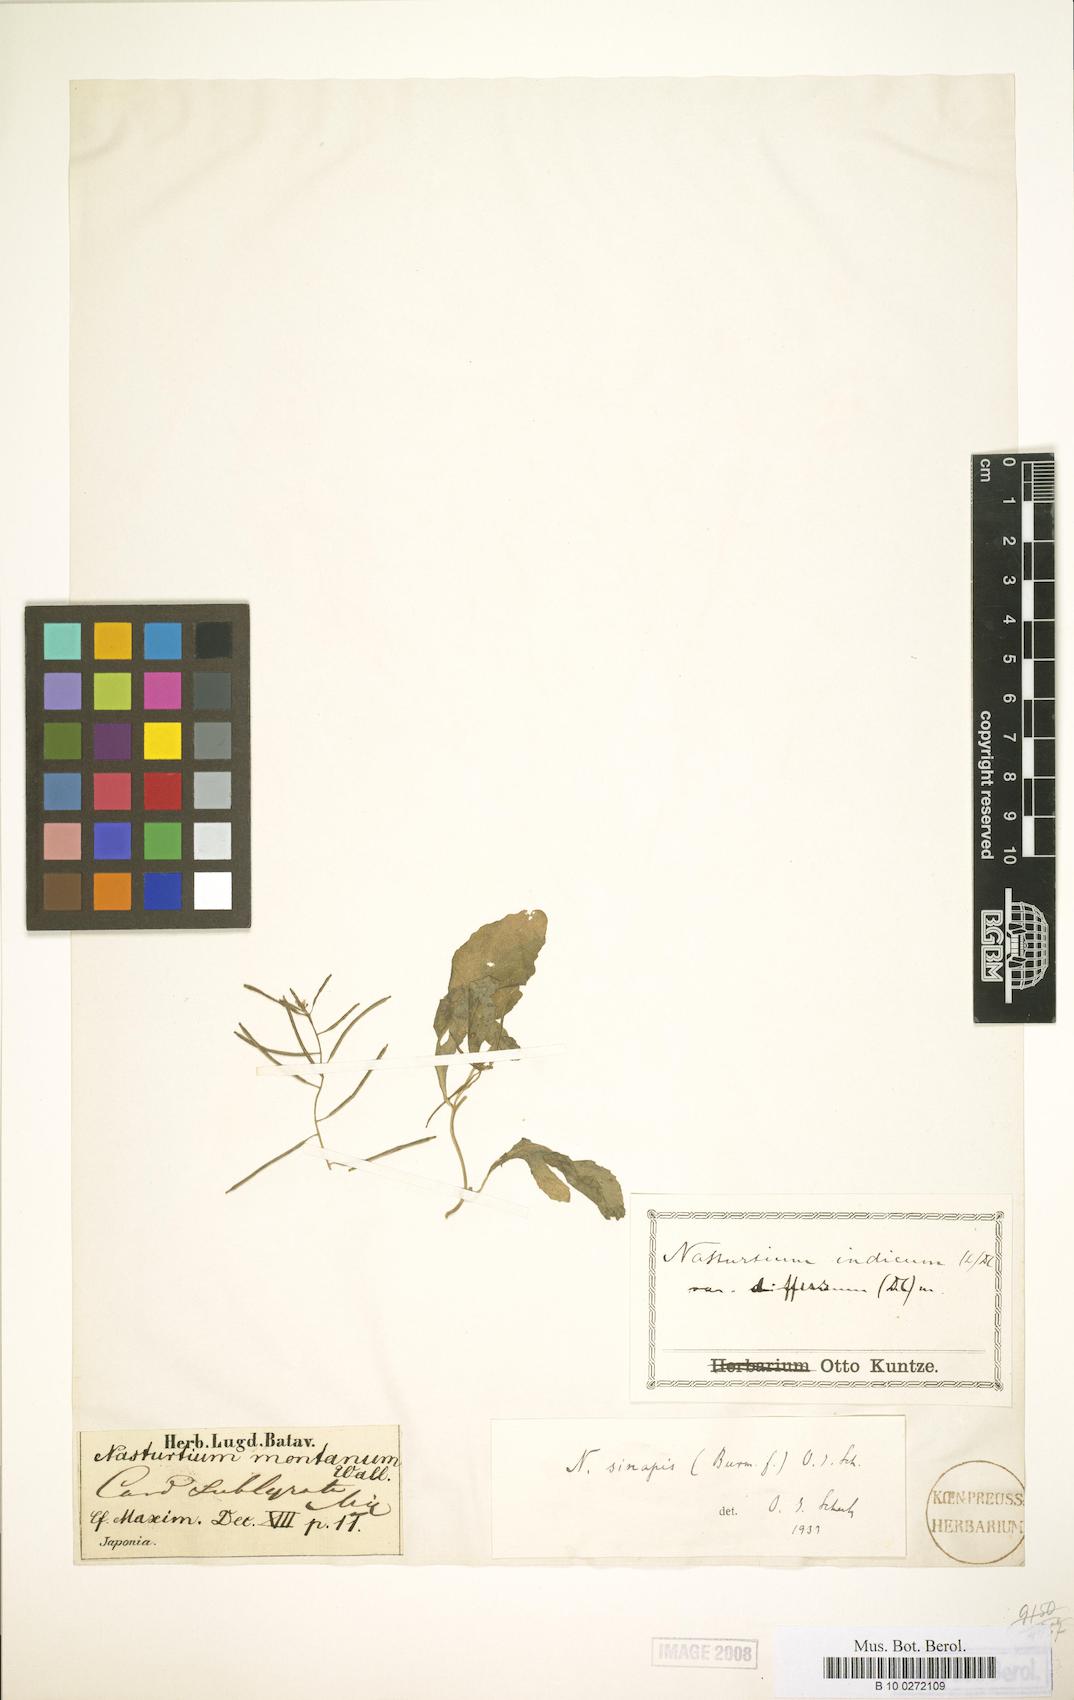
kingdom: Plantae
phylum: Tracheophyta
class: Magnoliopsida
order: Brassicales
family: Brassicaceae
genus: Rorippa
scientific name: Rorippa indica
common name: Variableleaf yellowcress
